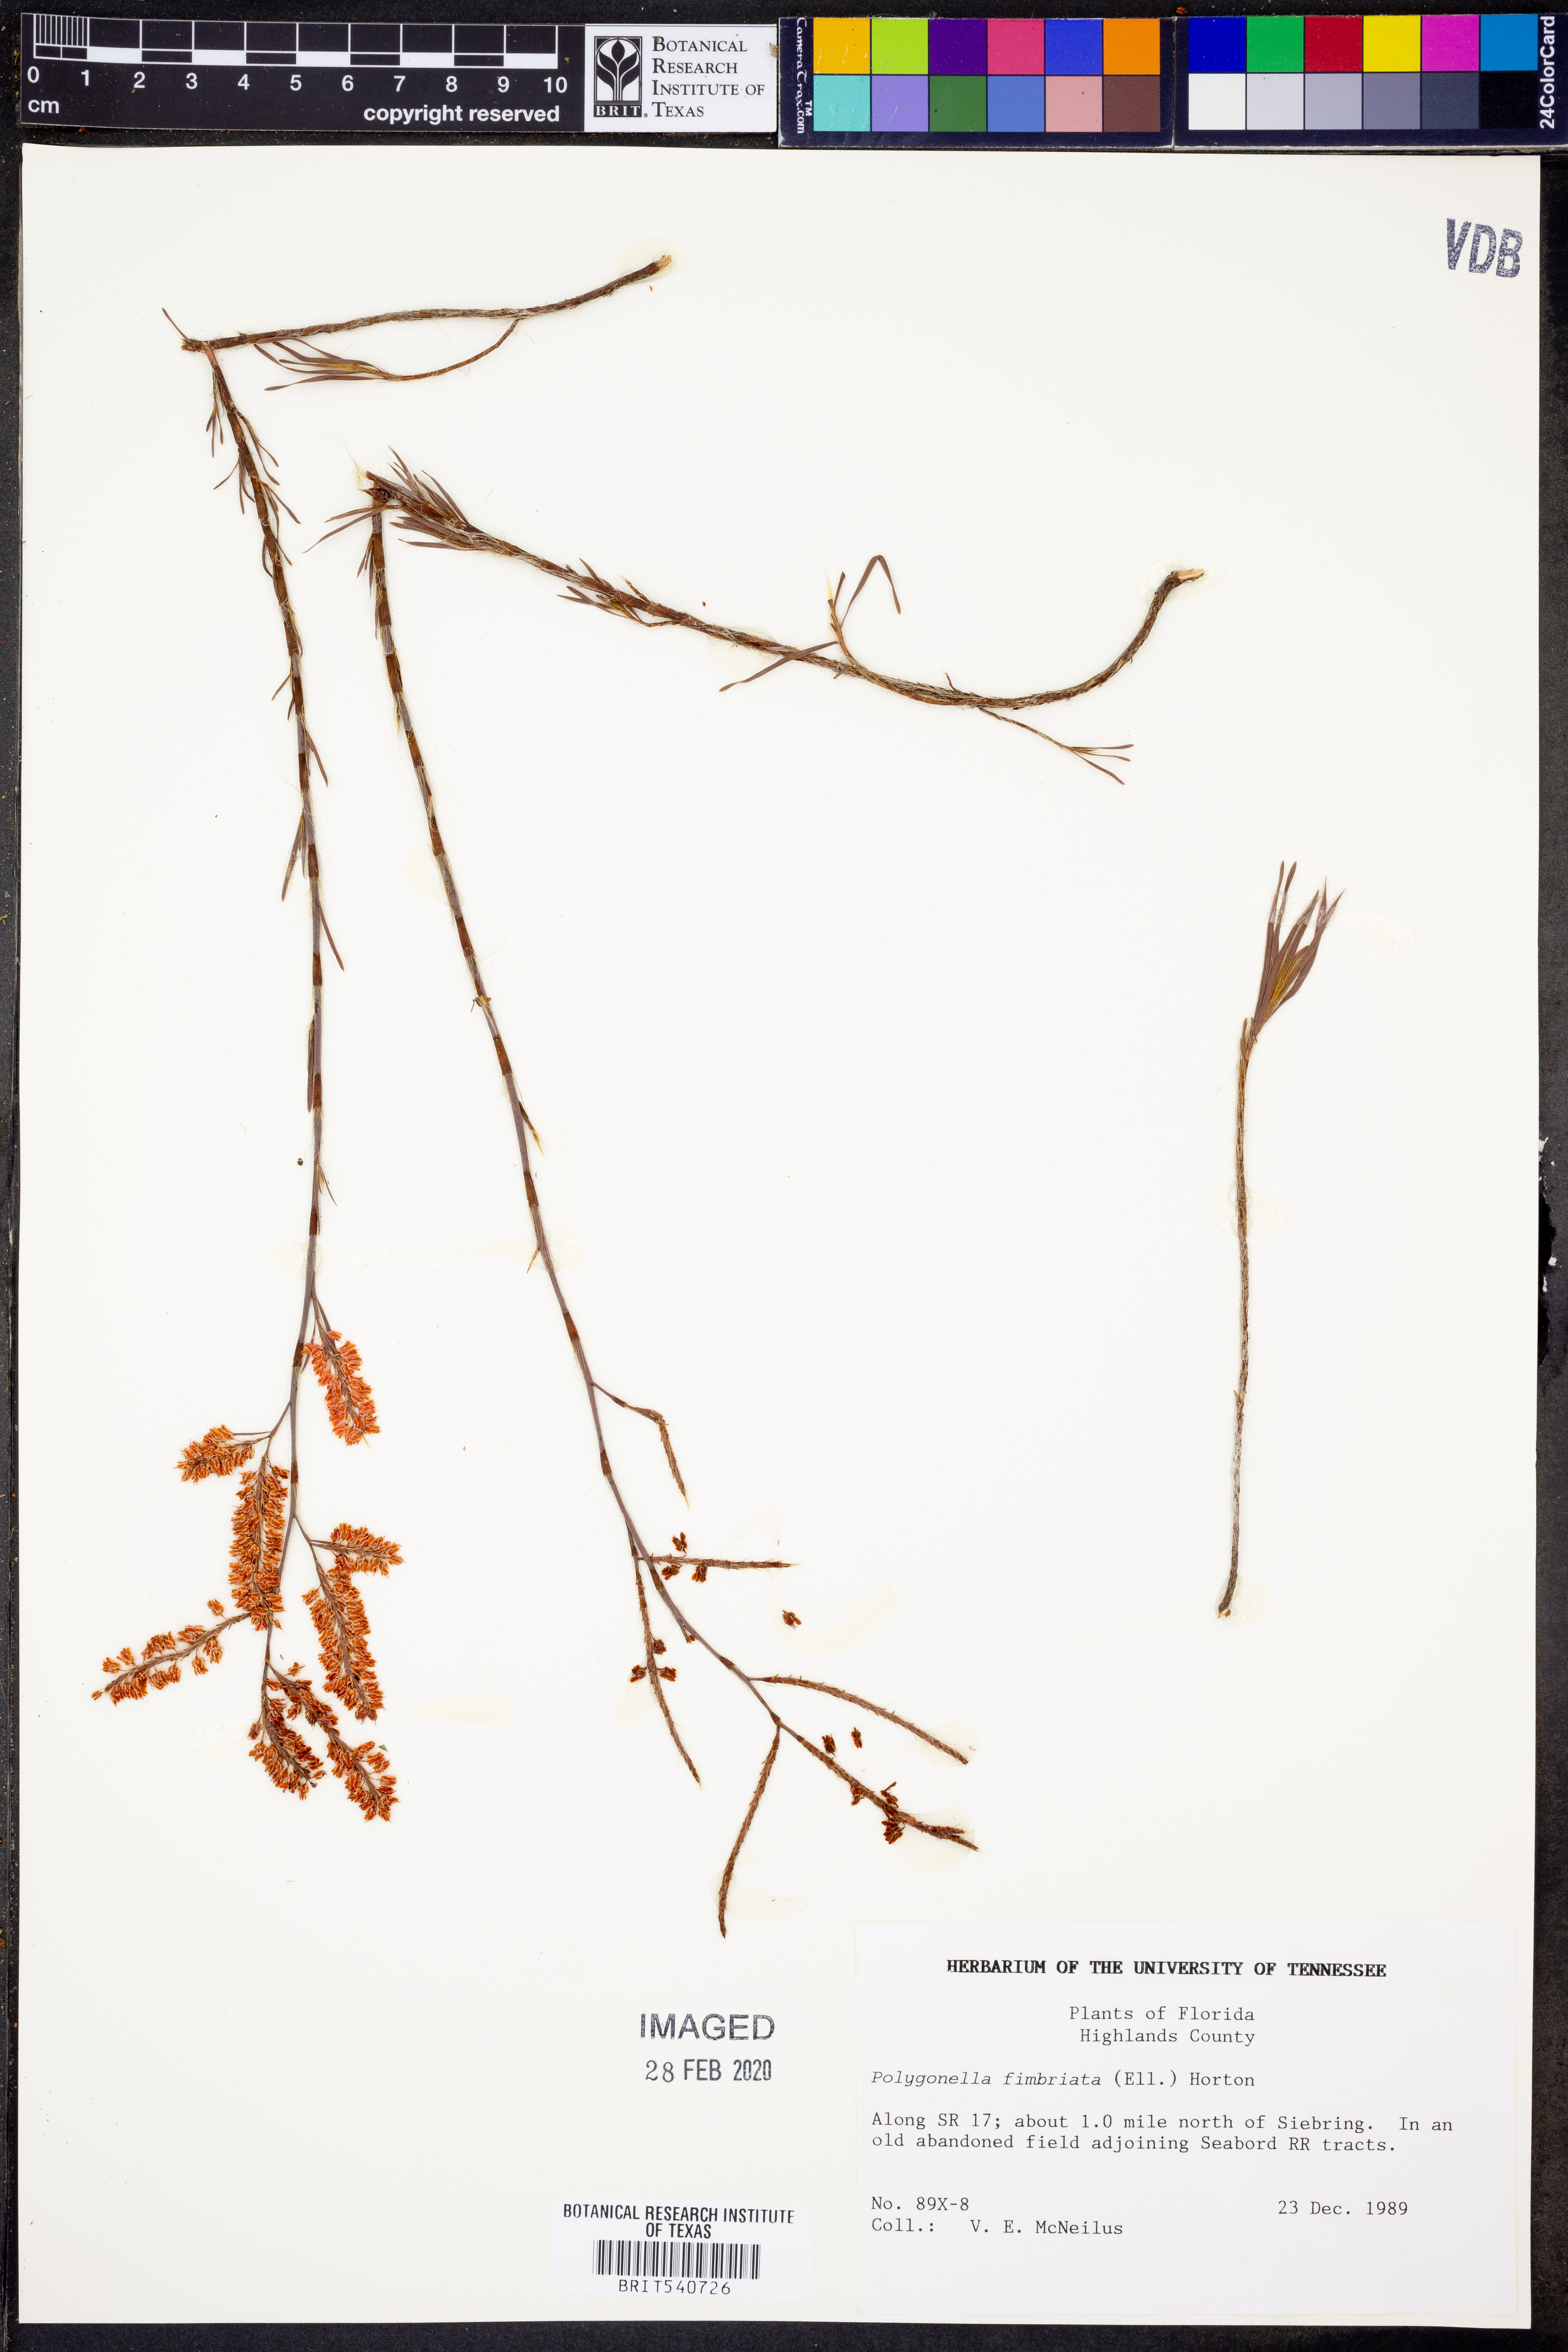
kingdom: Plantae
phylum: Tracheophyta
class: Magnoliopsida
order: Caryophyllales
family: Polygonaceae
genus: Polygonella
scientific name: Polygonella fimbriata
